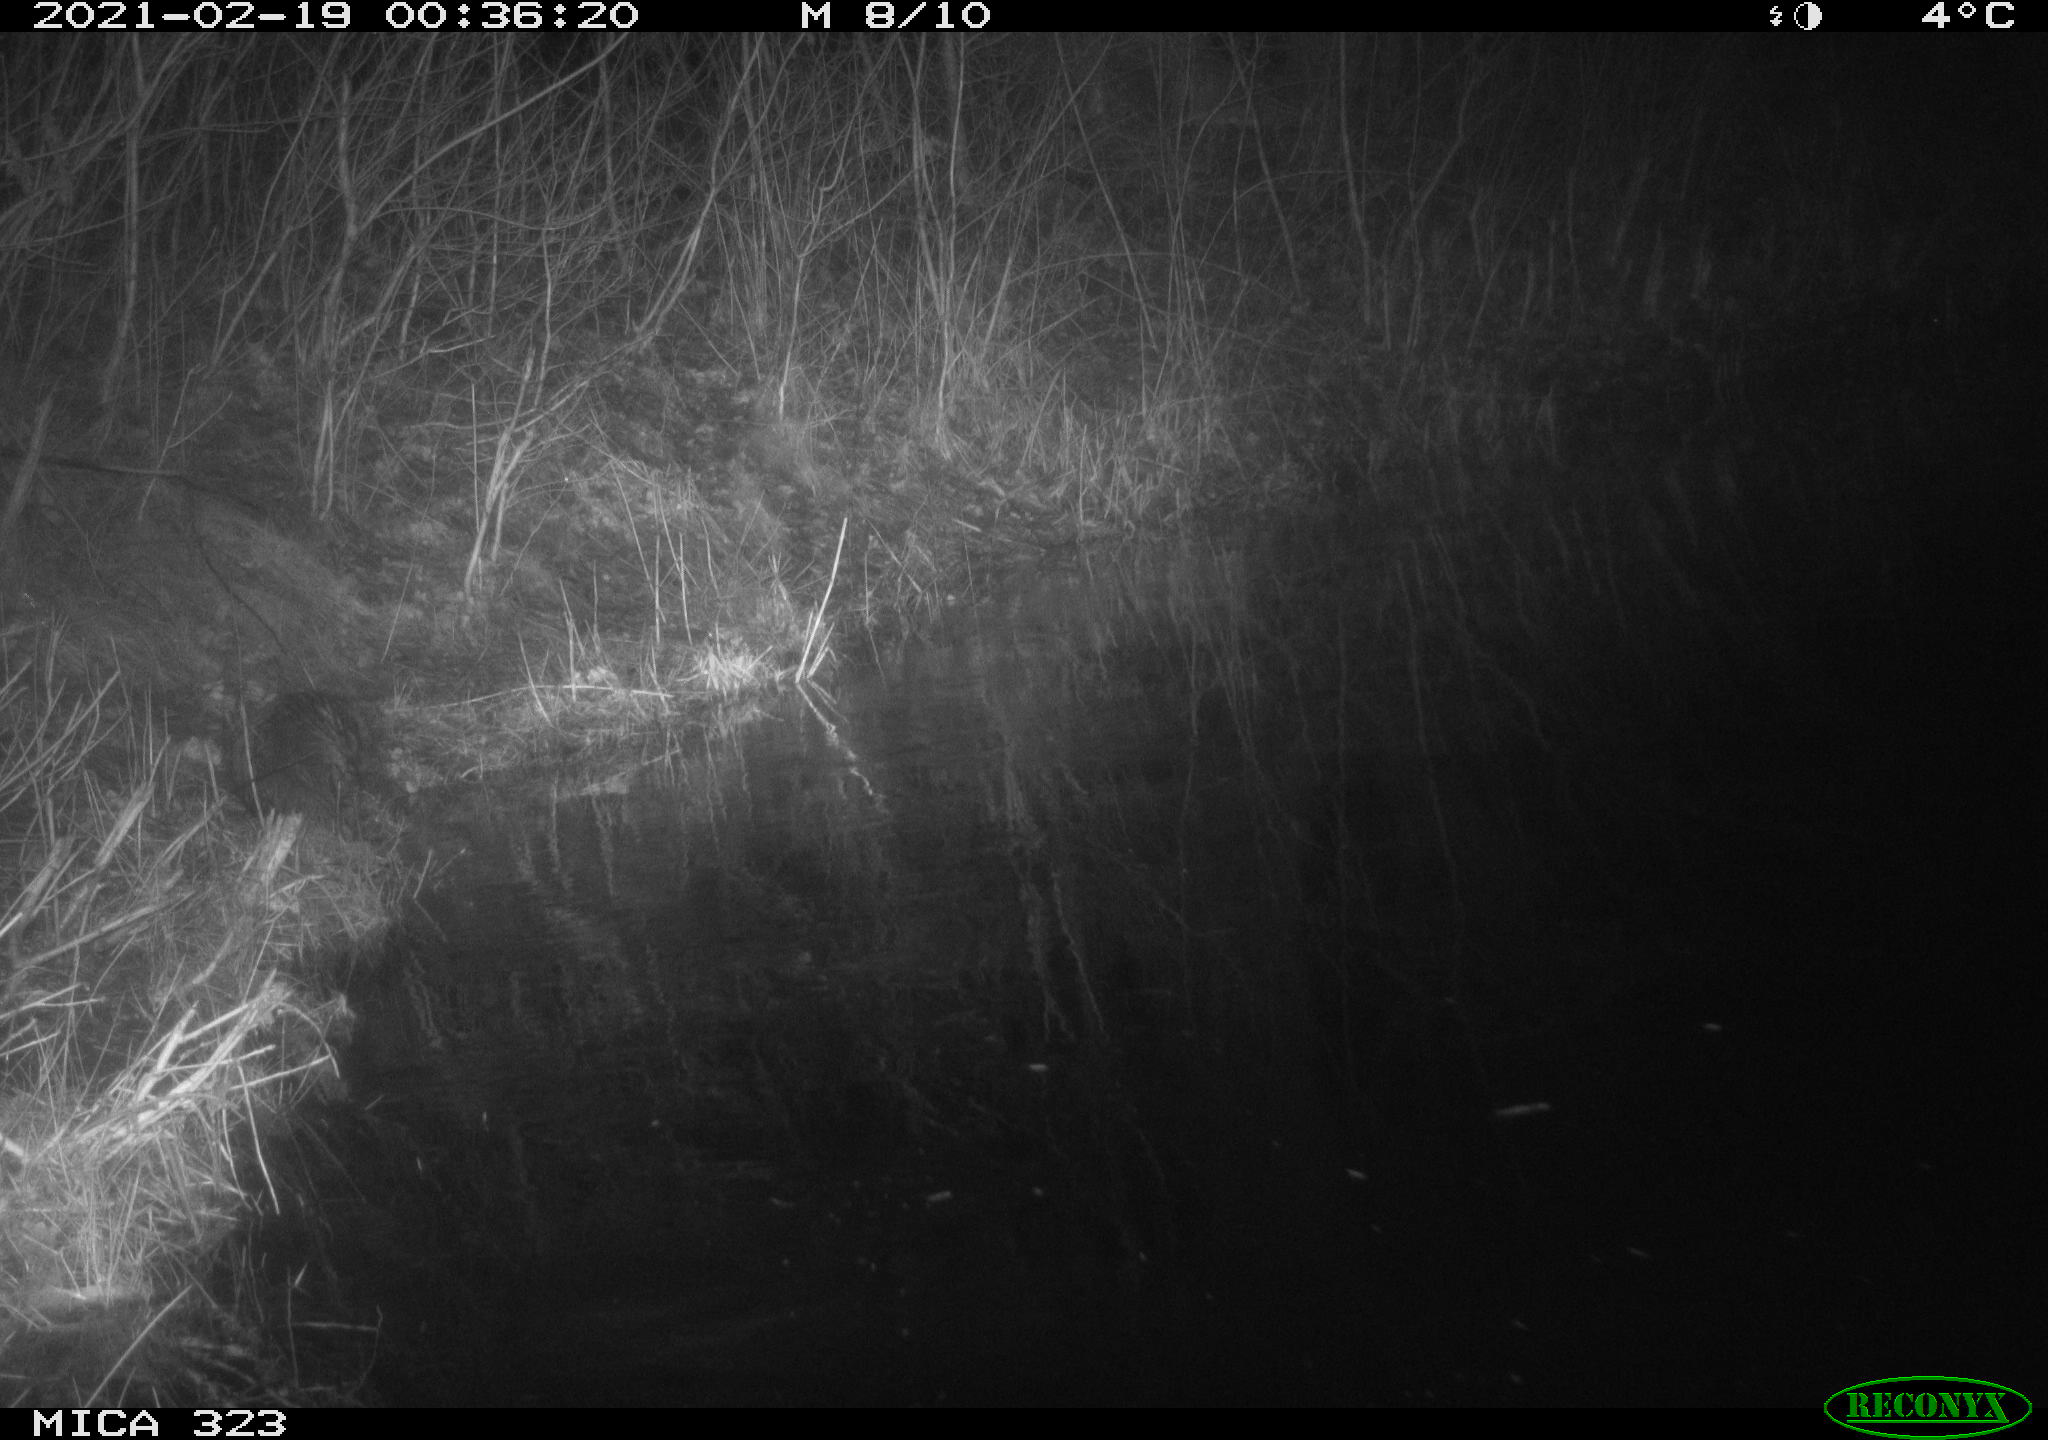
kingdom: Animalia
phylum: Chordata
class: Mammalia
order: Rodentia
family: Myocastoridae
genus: Myocastor
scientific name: Myocastor coypus
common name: Coypu
